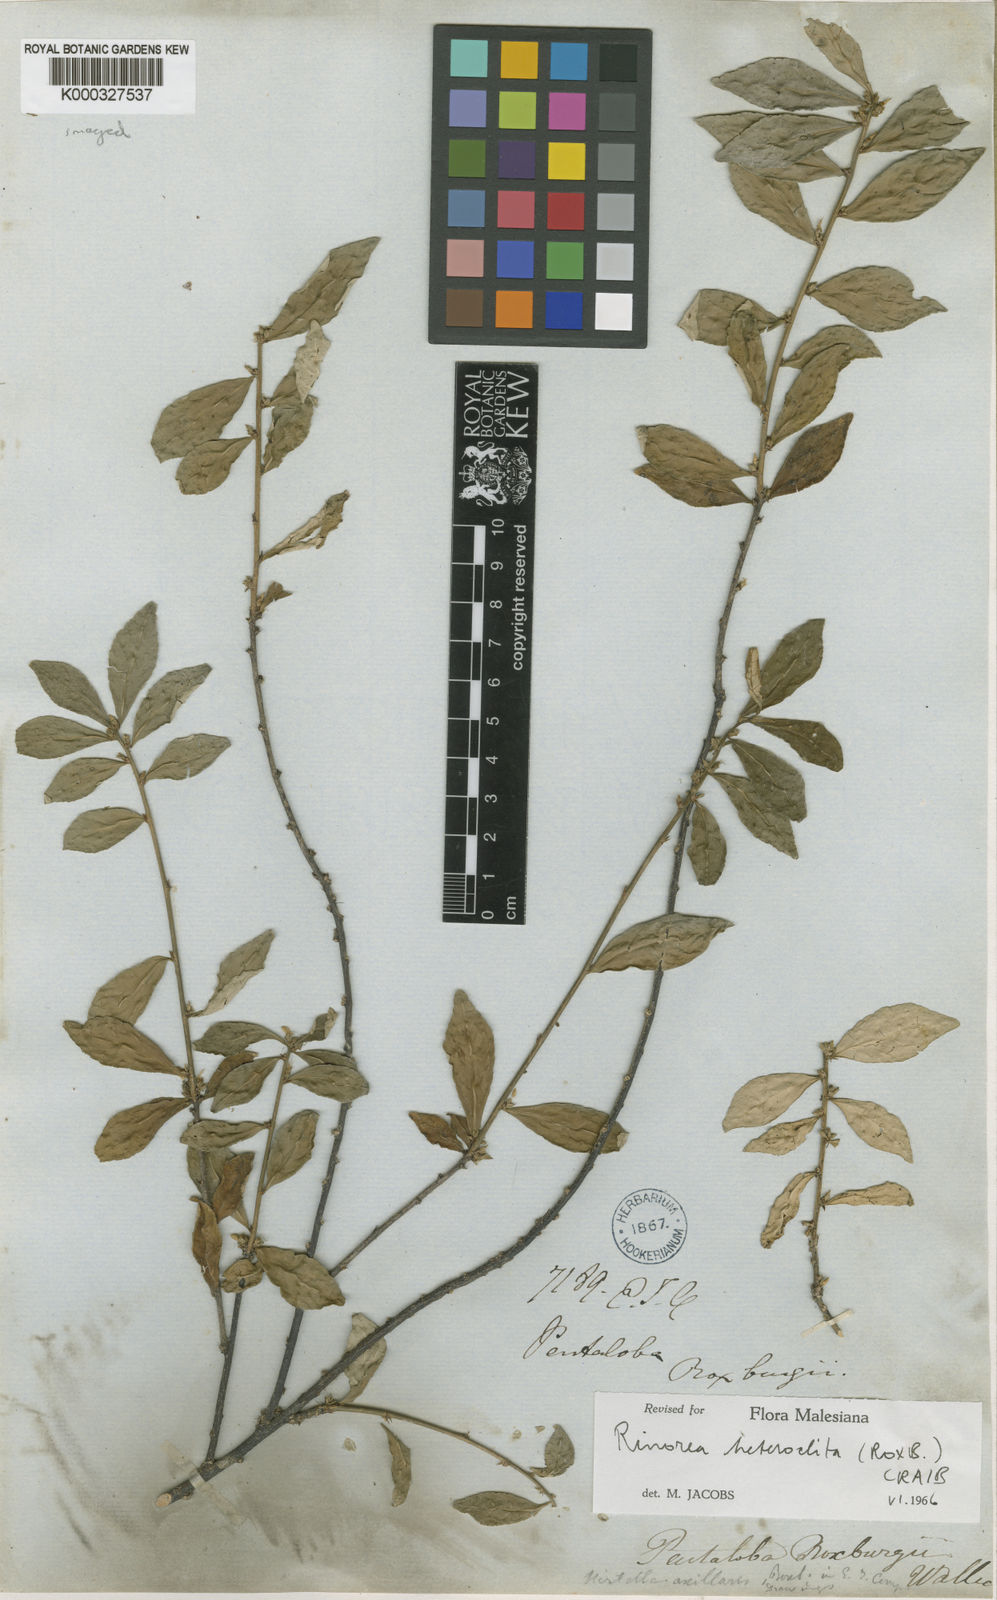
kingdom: Plantae
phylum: Tracheophyta
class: Magnoliopsida
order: Malpighiales
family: Violaceae
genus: Rinorea
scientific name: Rinorea heteroclita
